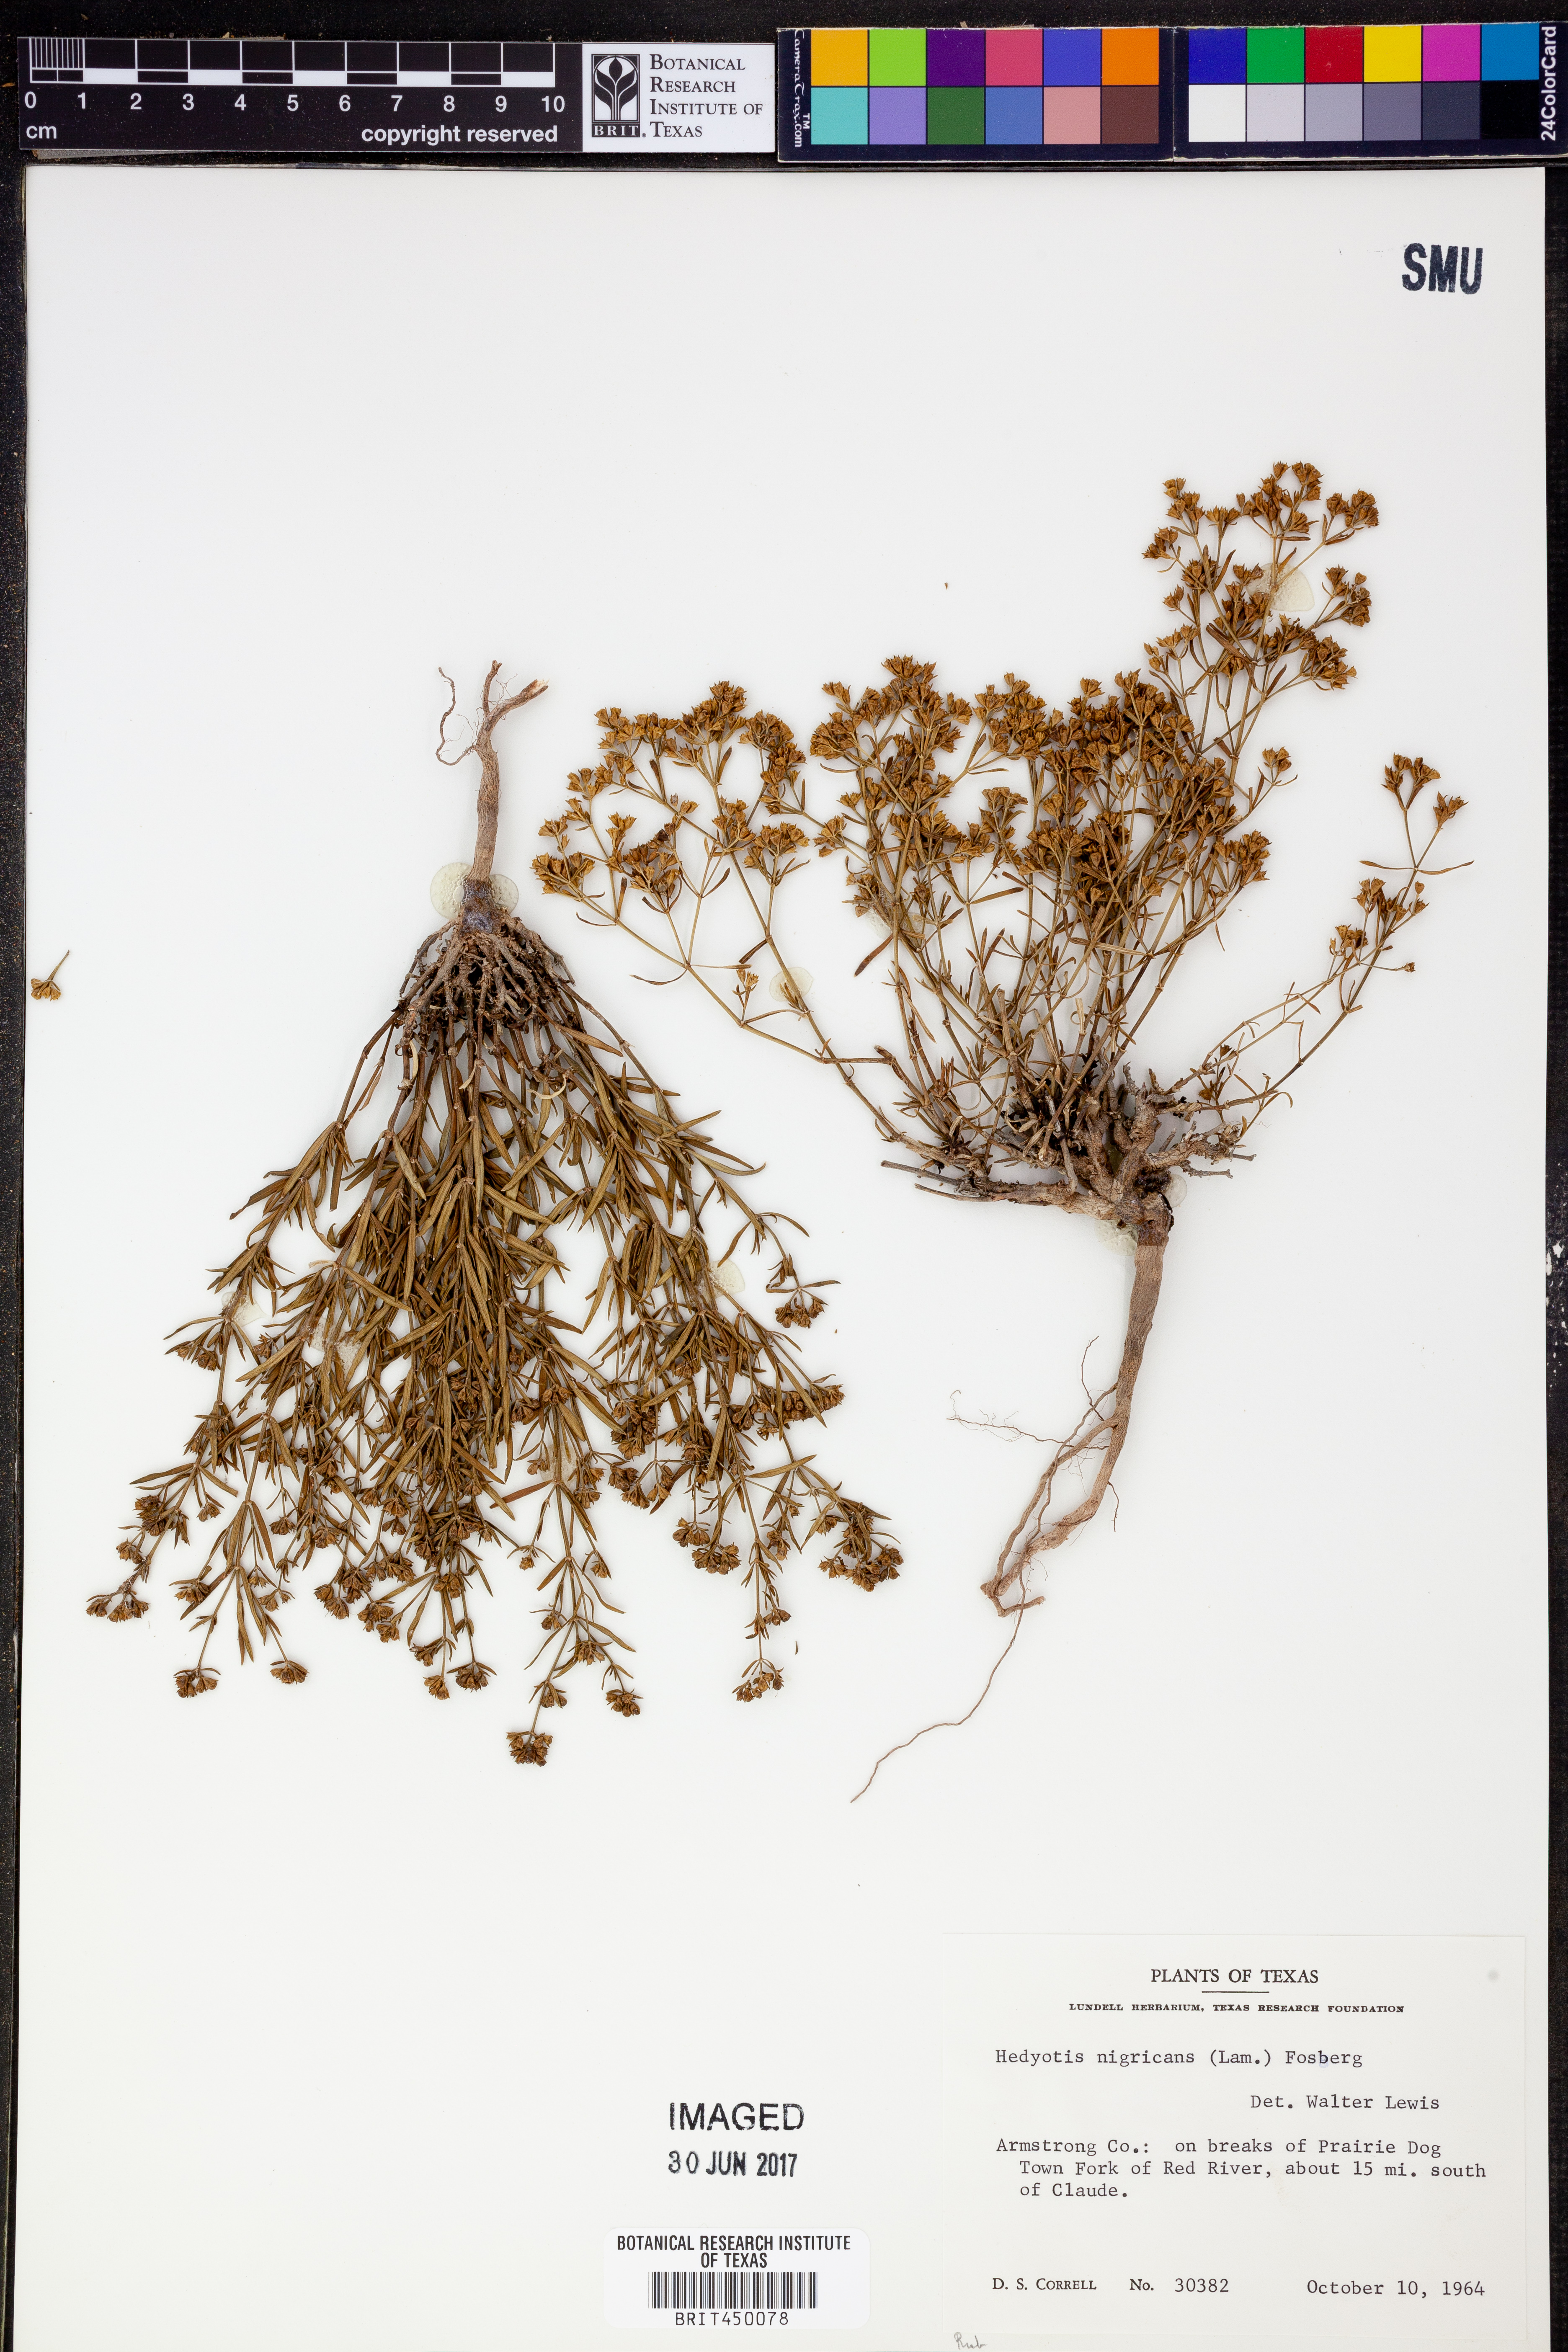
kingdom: Plantae
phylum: Tracheophyta
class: Magnoliopsida
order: Gentianales
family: Rubiaceae
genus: Stenaria
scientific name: Stenaria nigricans
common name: Diamondflowers
